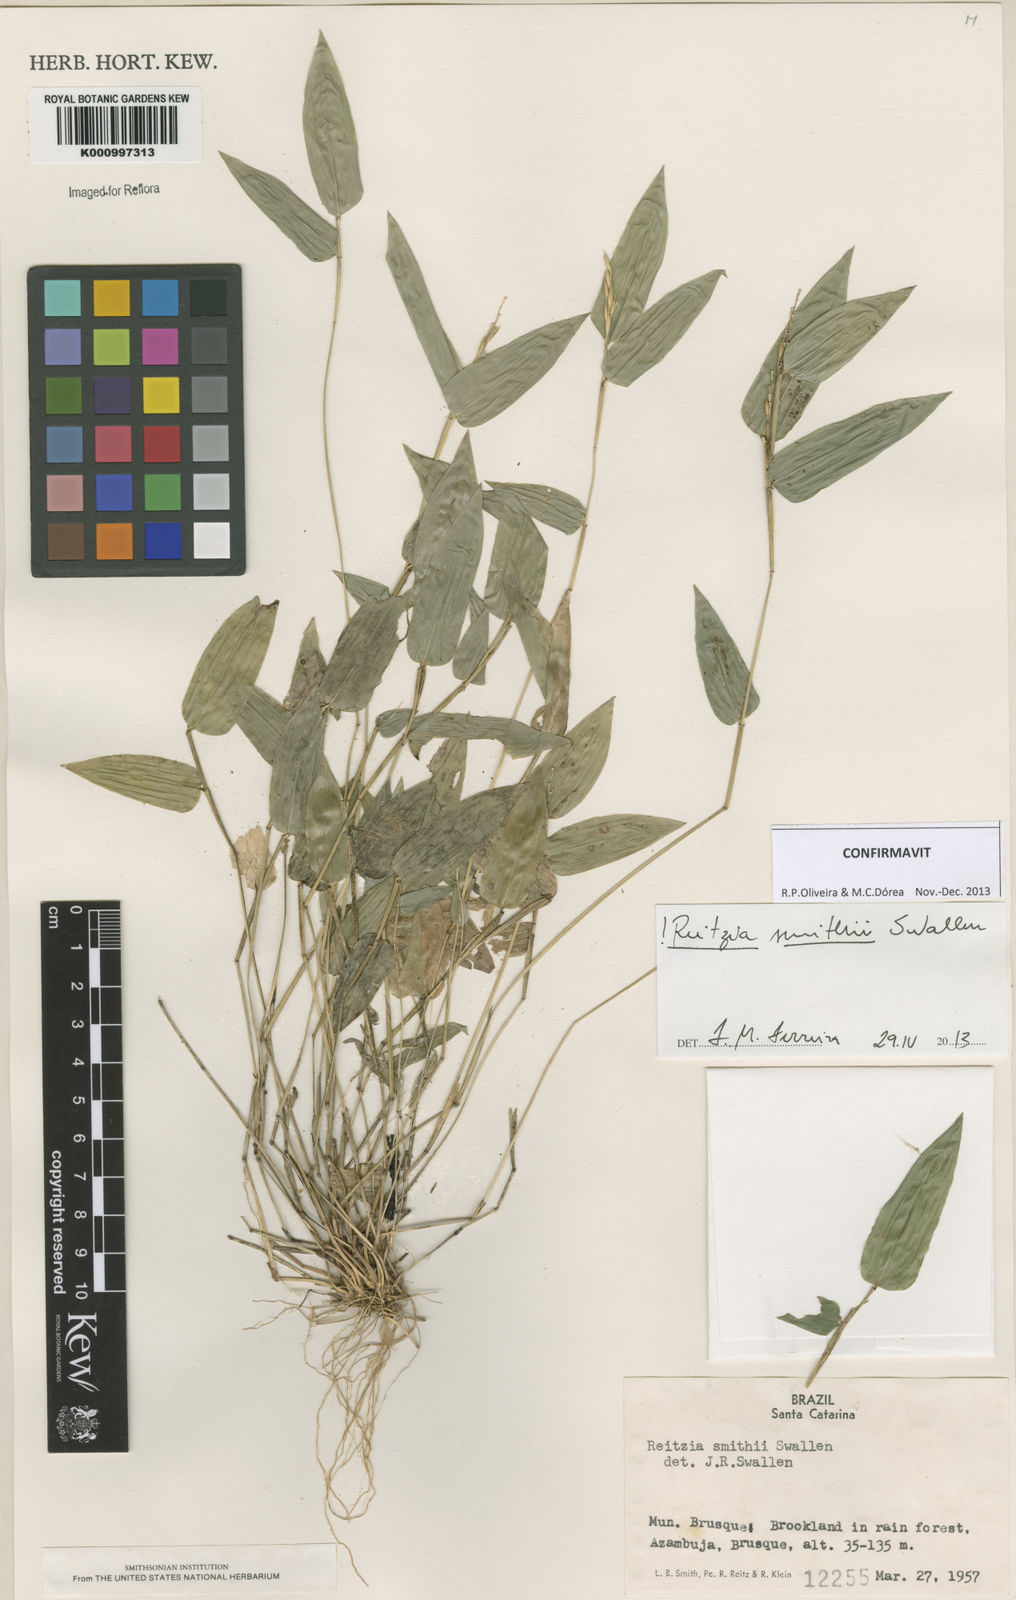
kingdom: Plantae
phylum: Tracheophyta
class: Liliopsida
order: Poales
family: Poaceae
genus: Reitzia
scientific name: Reitzia smithii
